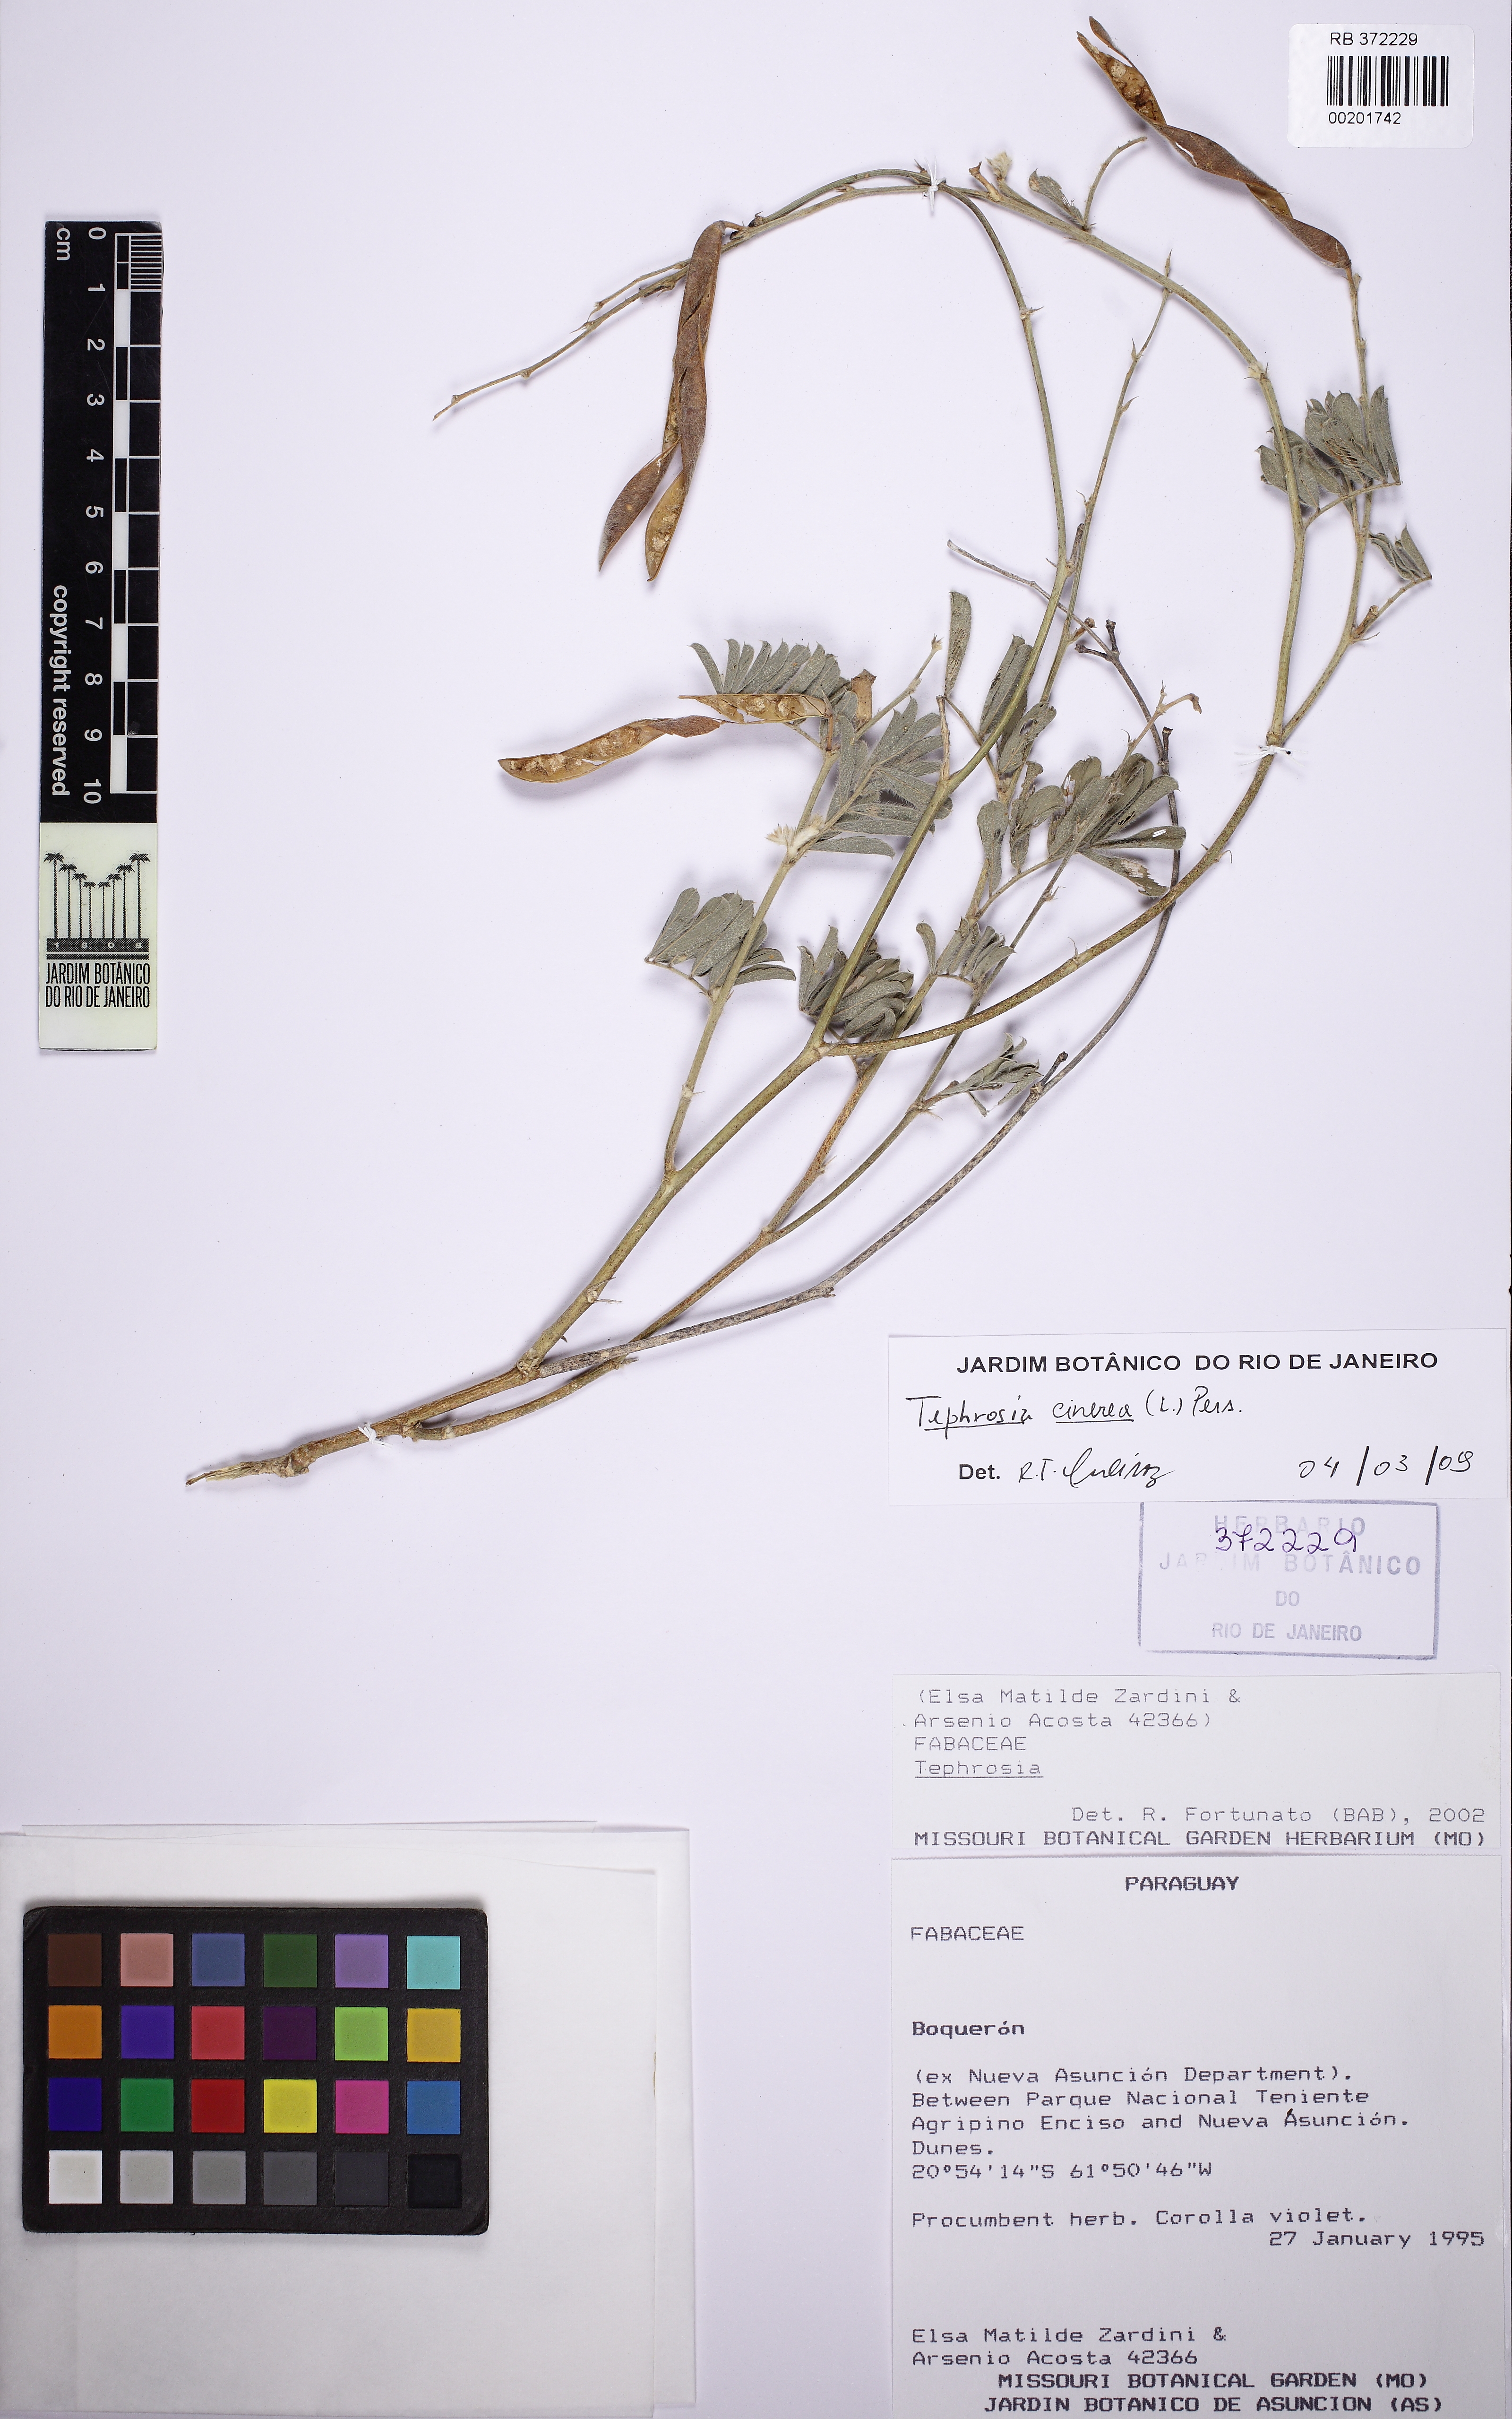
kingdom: Plantae
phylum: Tracheophyta
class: Magnoliopsida
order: Fabales
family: Fabaceae
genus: Tephrosia
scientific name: Tephrosia cinerea
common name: Ashen hoarypea
